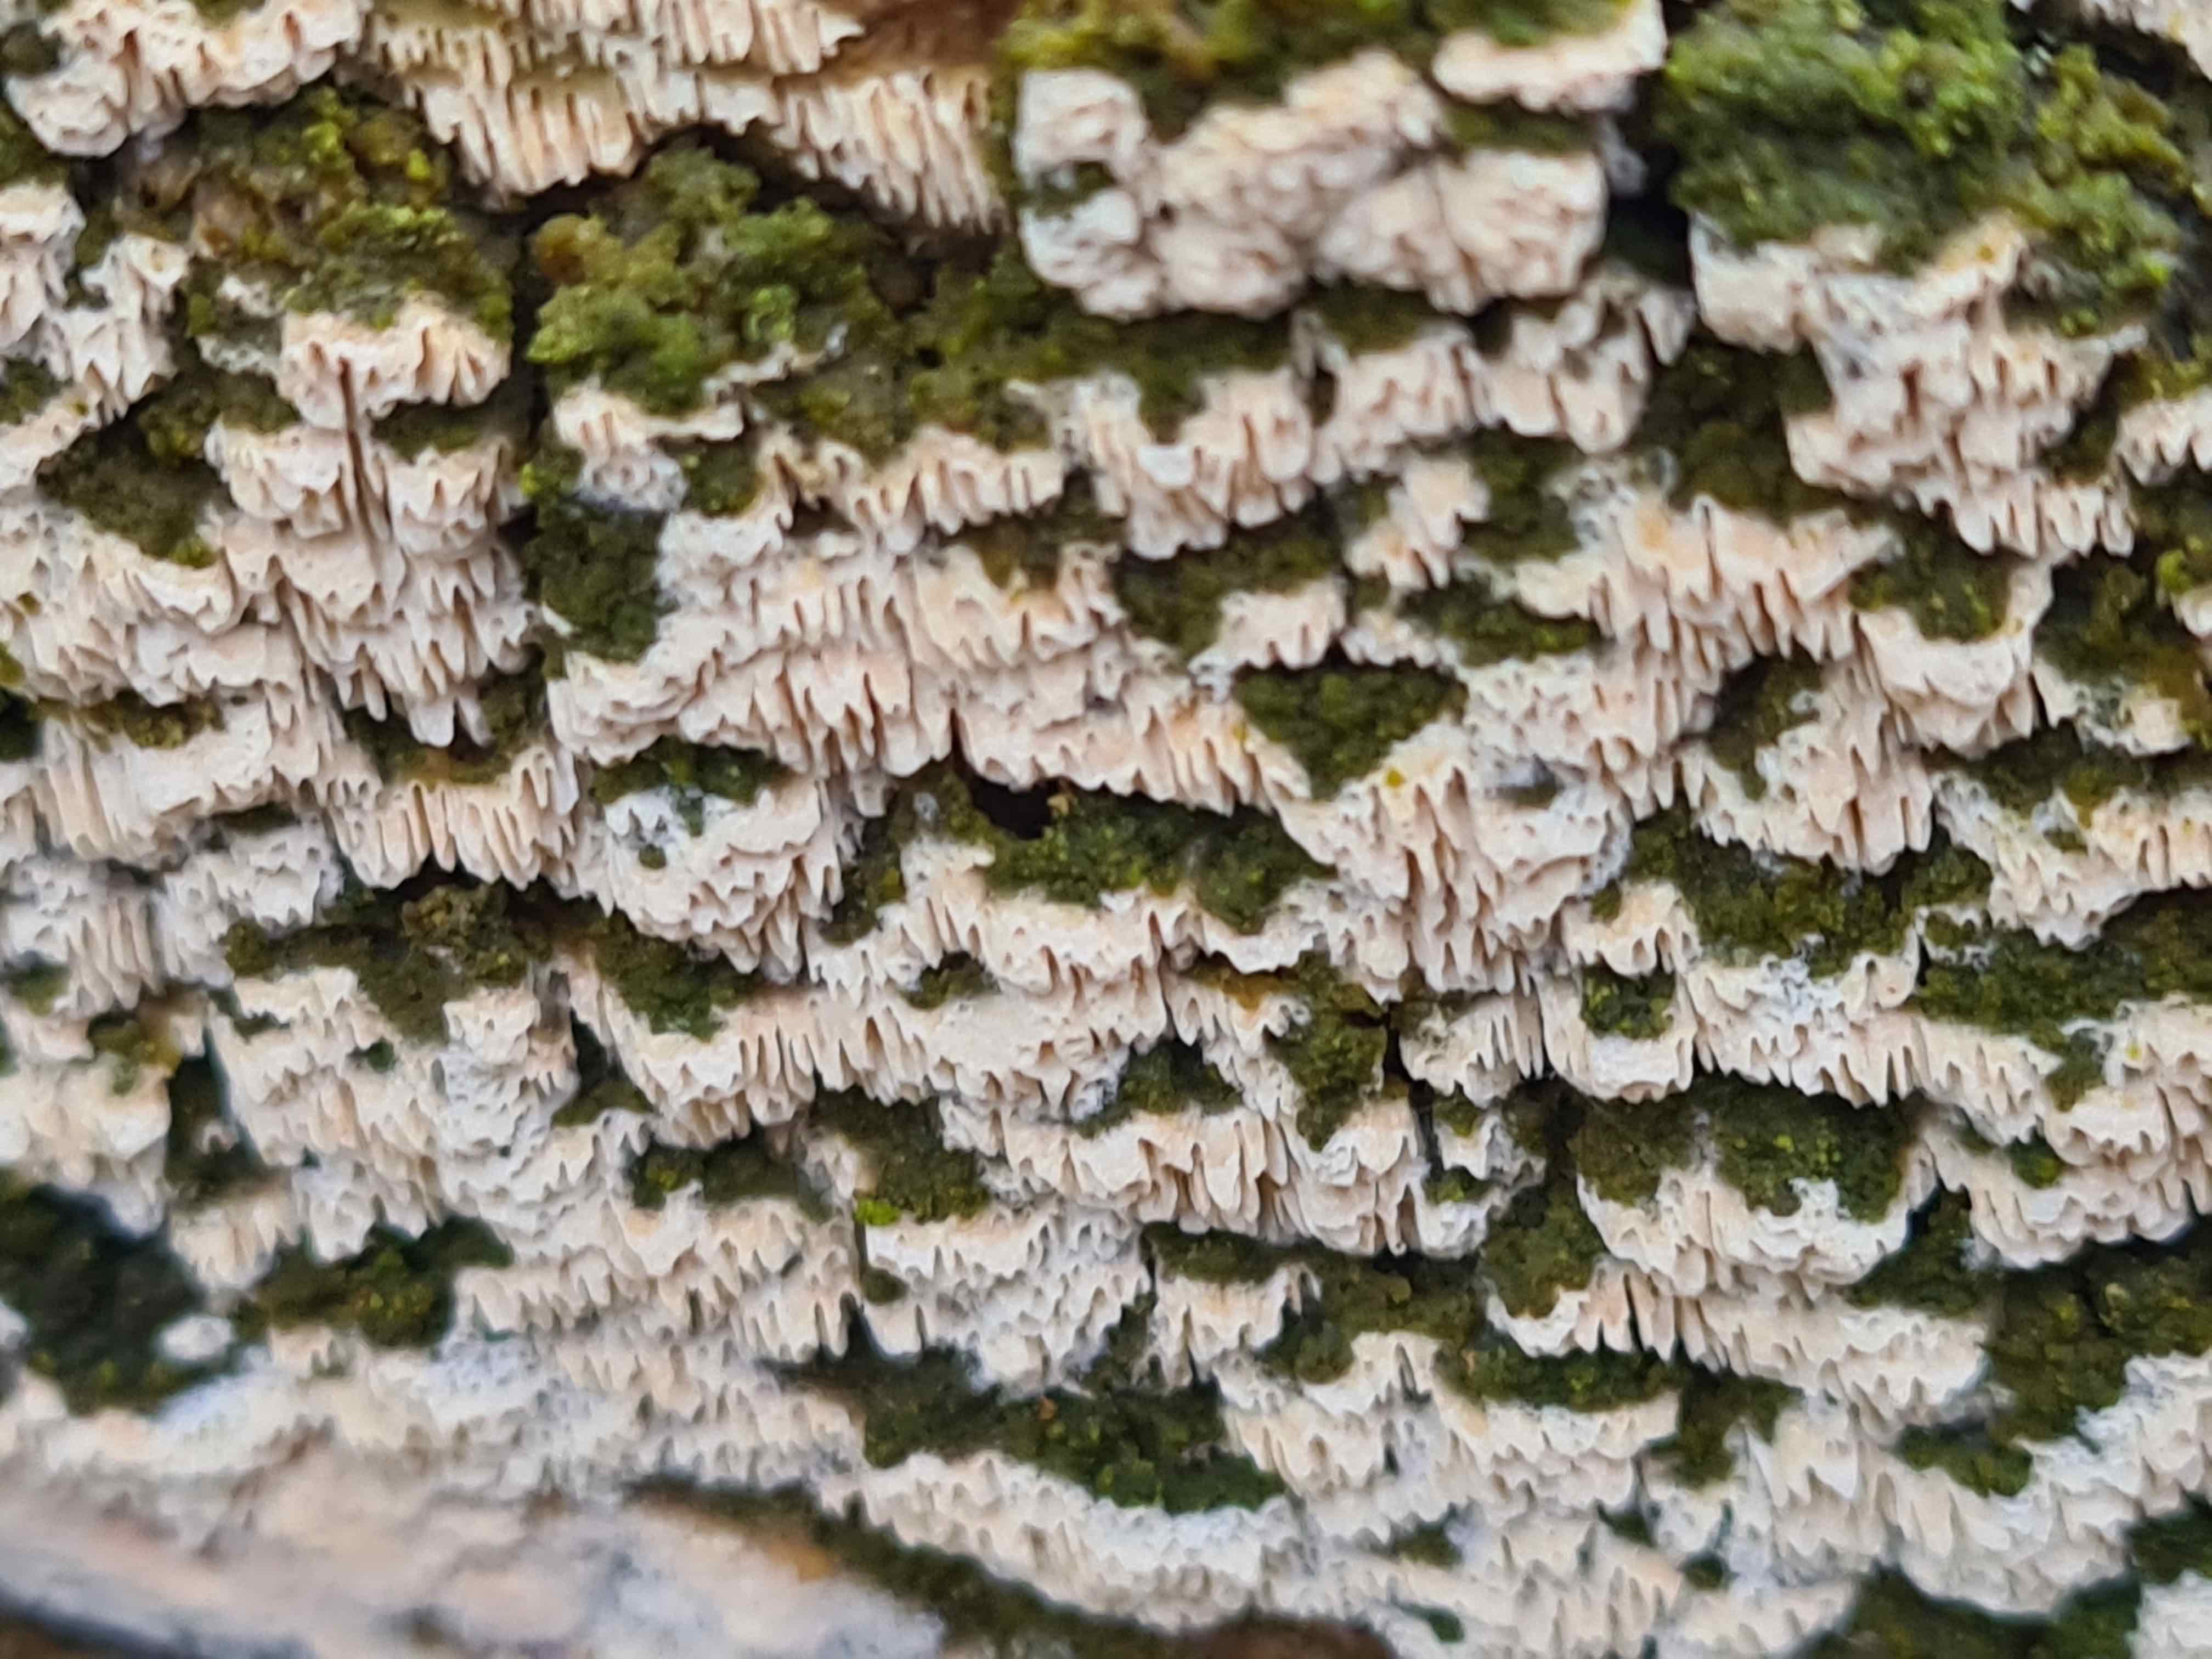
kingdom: Fungi
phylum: Basidiomycota
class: Agaricomycetes
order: Hymenochaetales
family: Schizoporaceae
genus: Schizopora
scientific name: Schizopora paradoxa
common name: hvid tandsvamp
